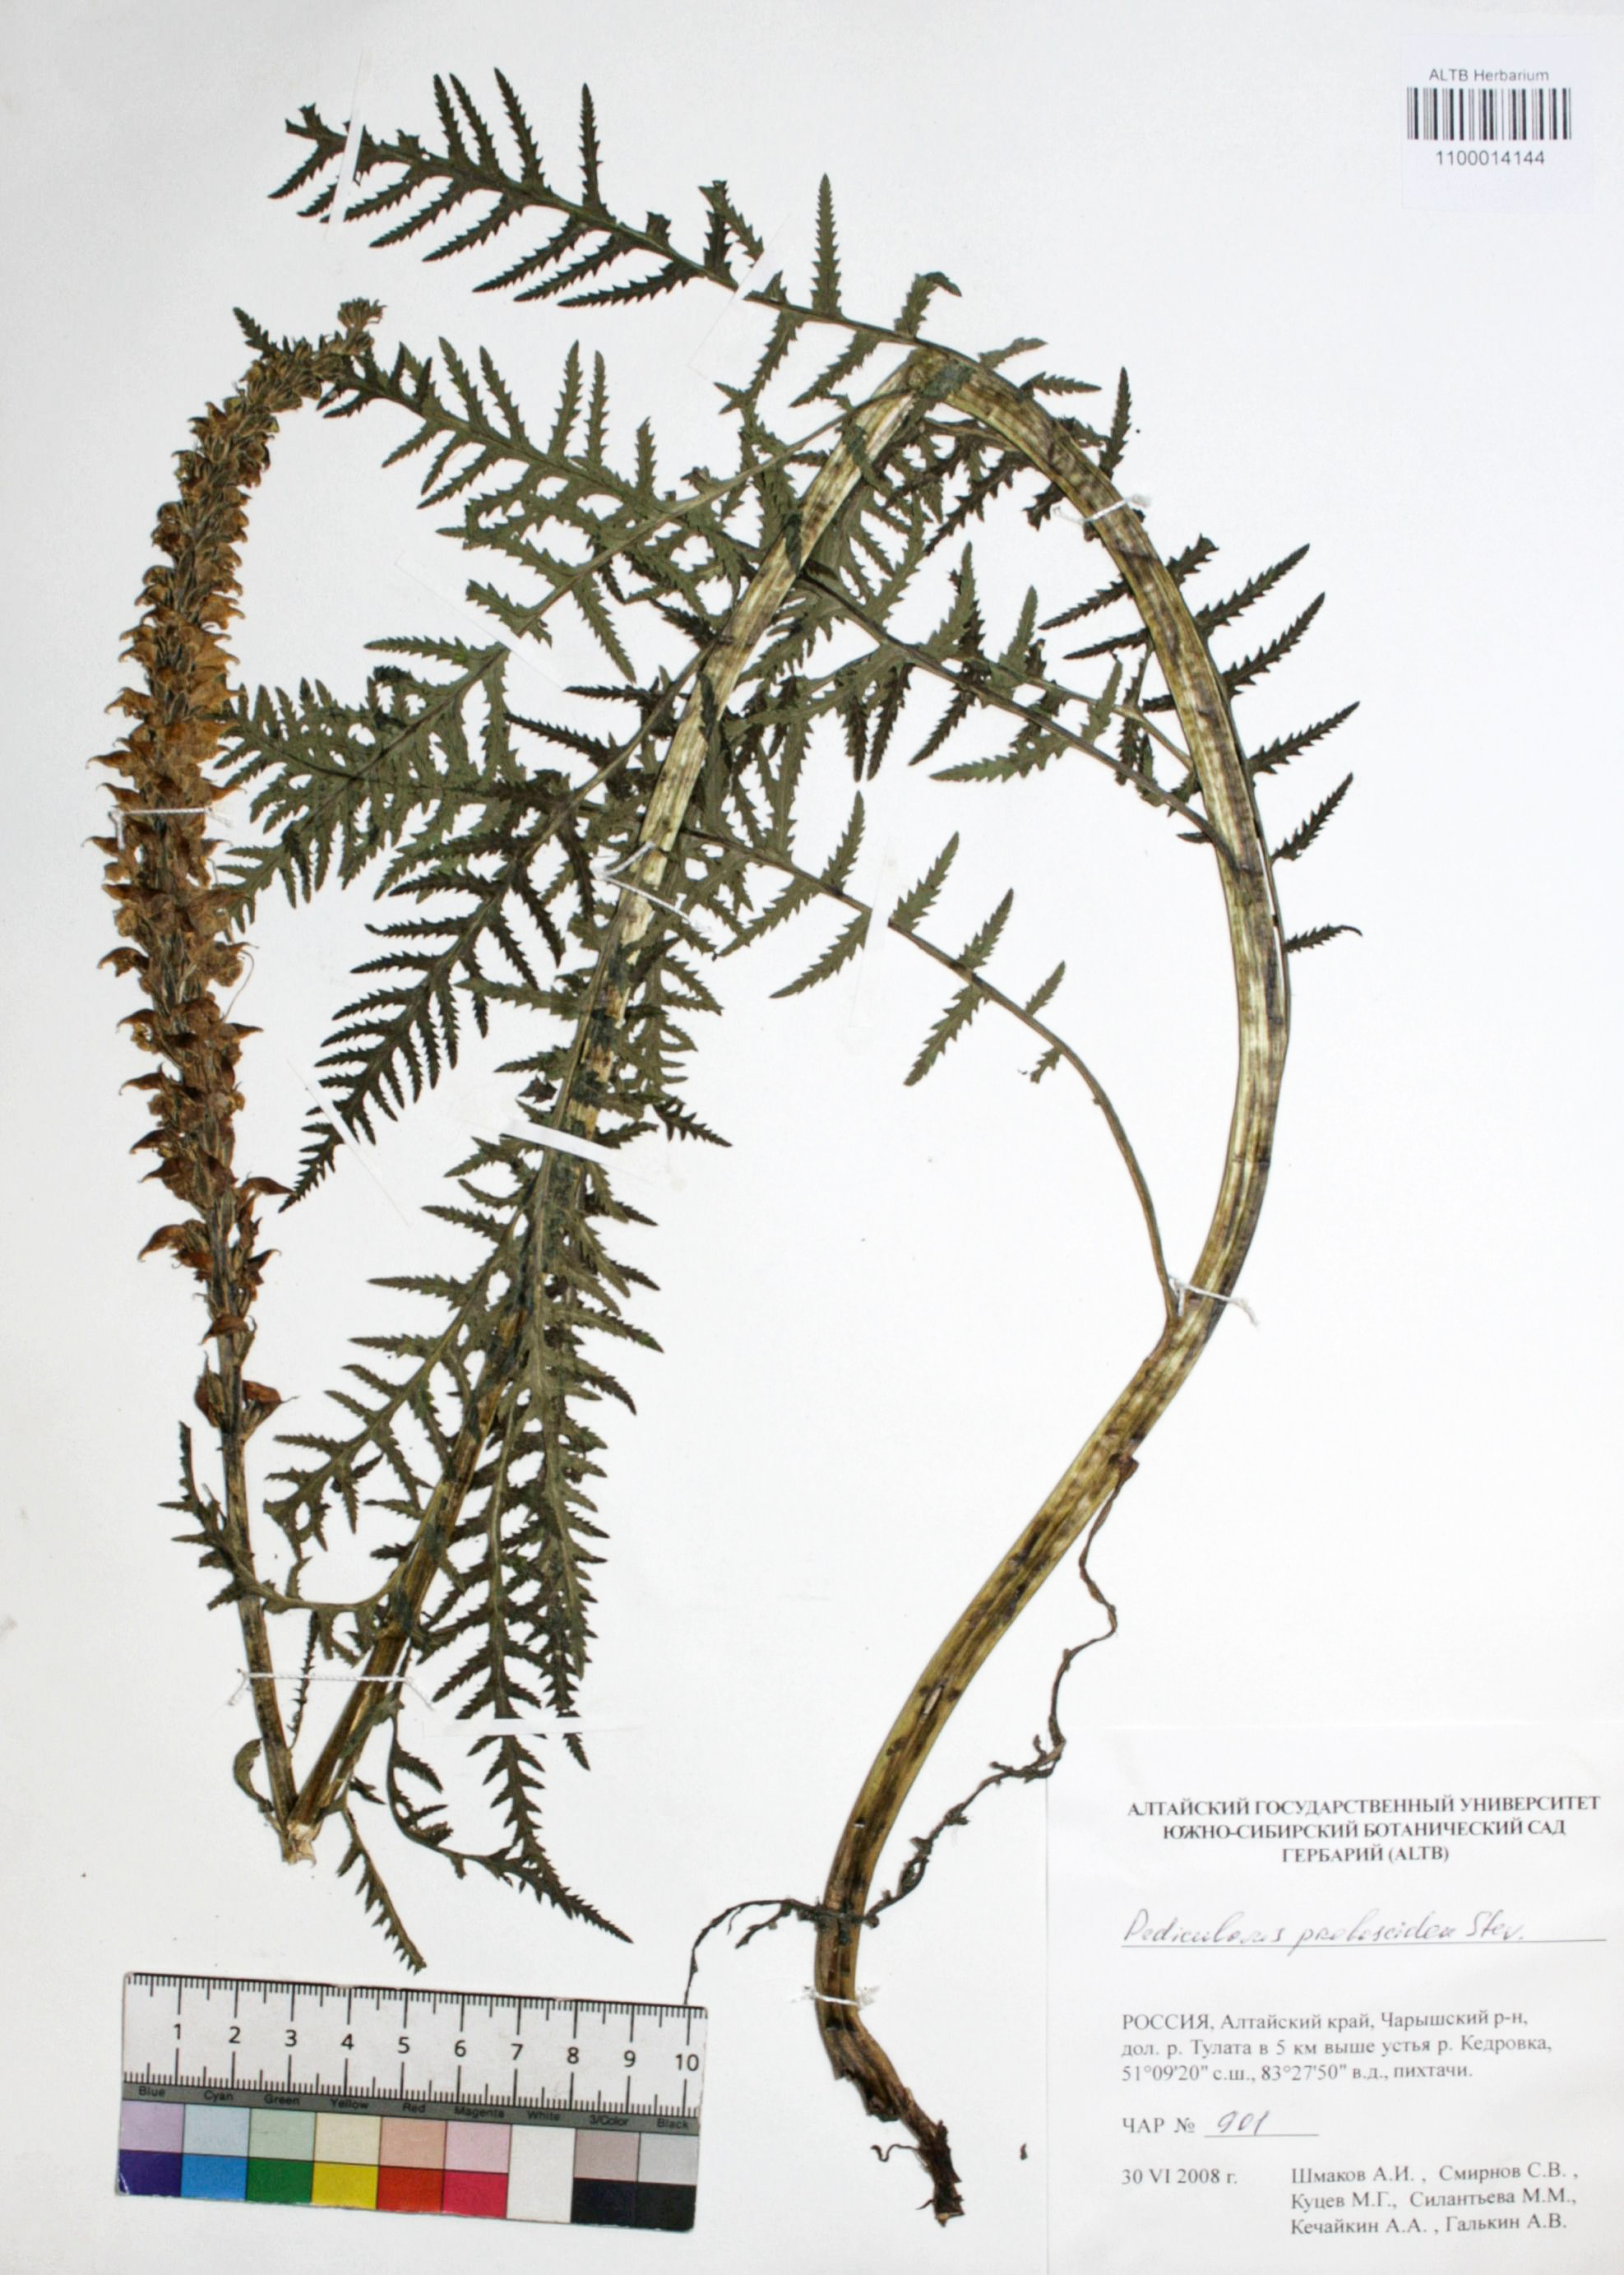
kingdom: Plantae
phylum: Tracheophyta
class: Magnoliopsida
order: Lamiales
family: Orobanchaceae
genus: Pedicularis
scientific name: Pedicularis proboscidea
